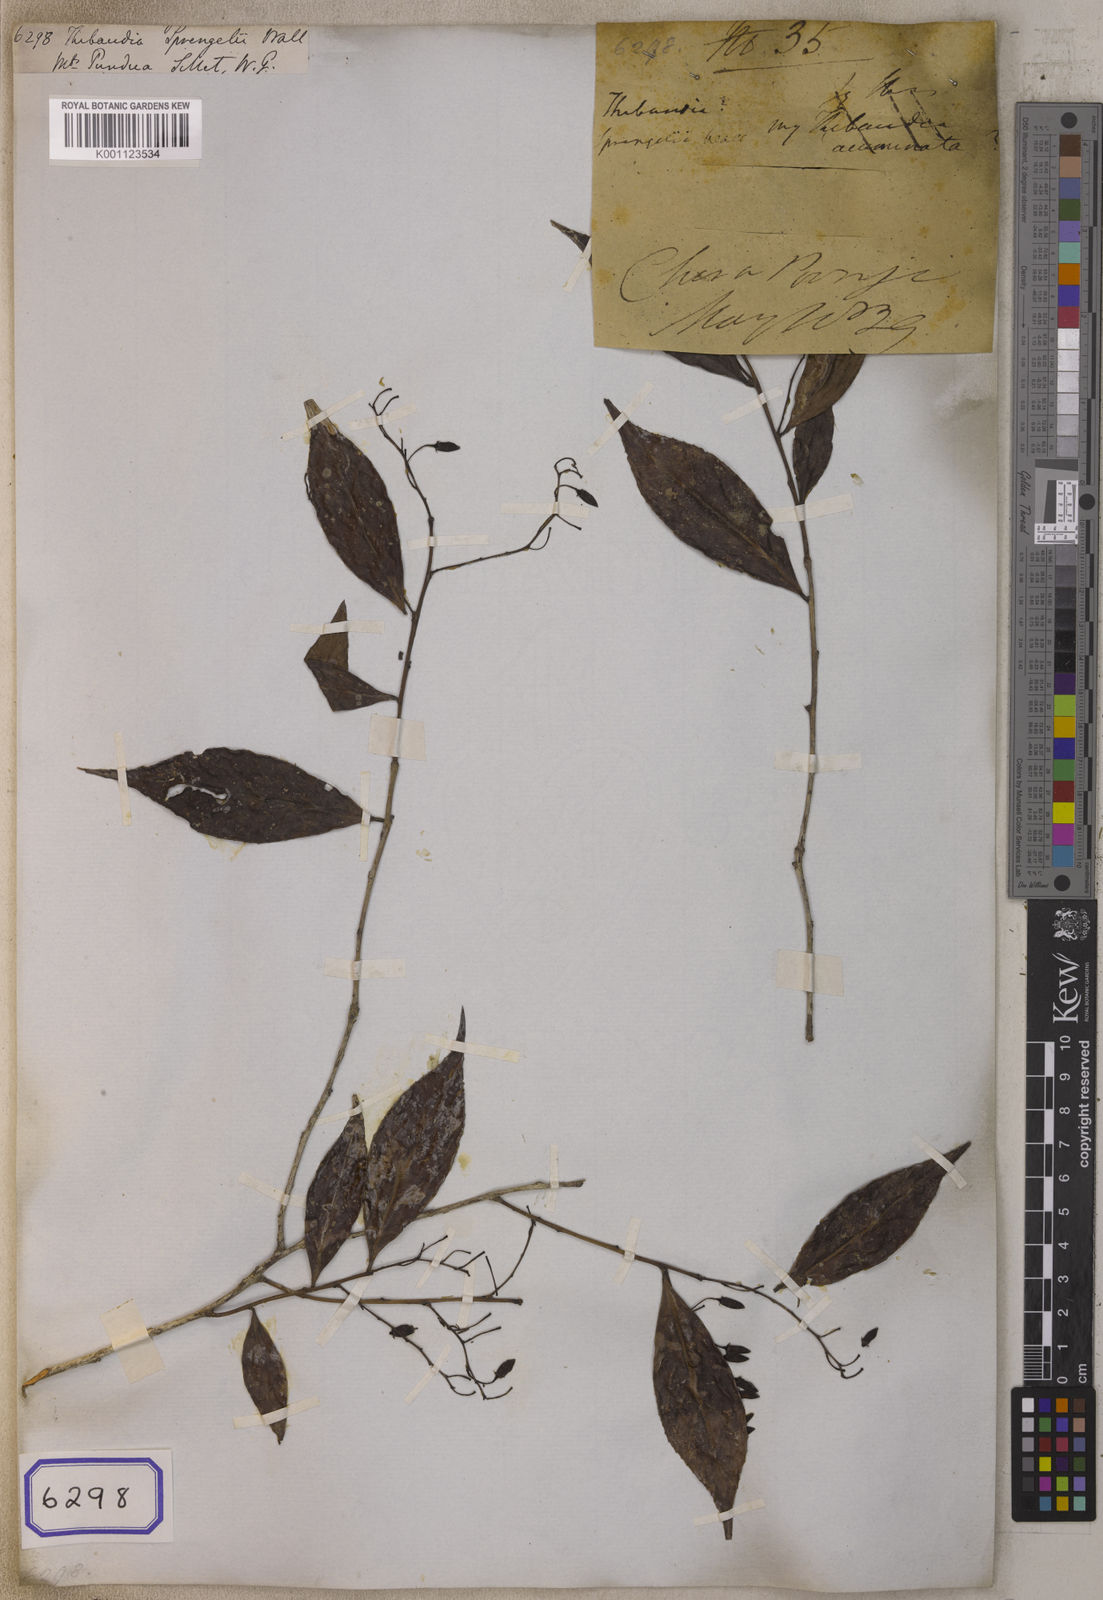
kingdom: Plantae
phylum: Tracheophyta
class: Magnoliopsida
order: Ericales
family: Ericaceae
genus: Vaccinium
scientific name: Vaccinium sprengelii
